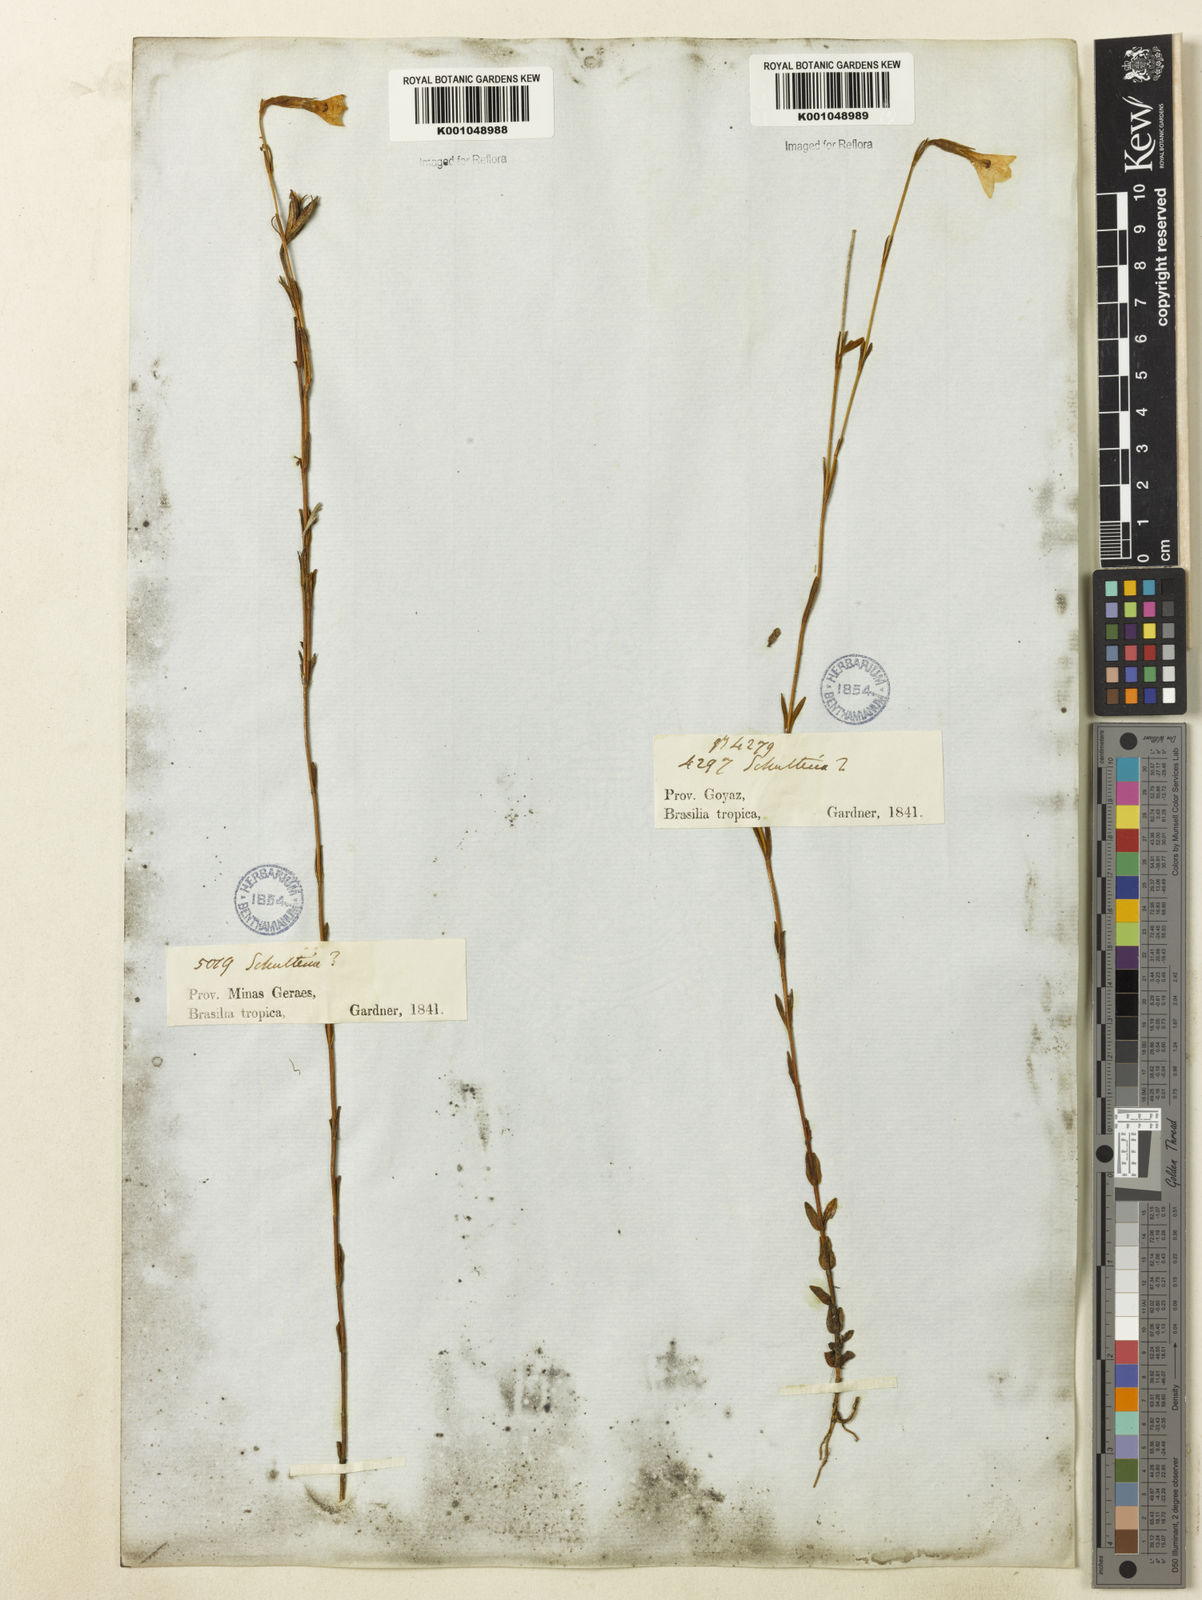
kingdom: Plantae
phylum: Tracheophyta
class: Magnoliopsida
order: Gentianales
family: Gentianaceae
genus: Schultesia
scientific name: Schultesia aptera
